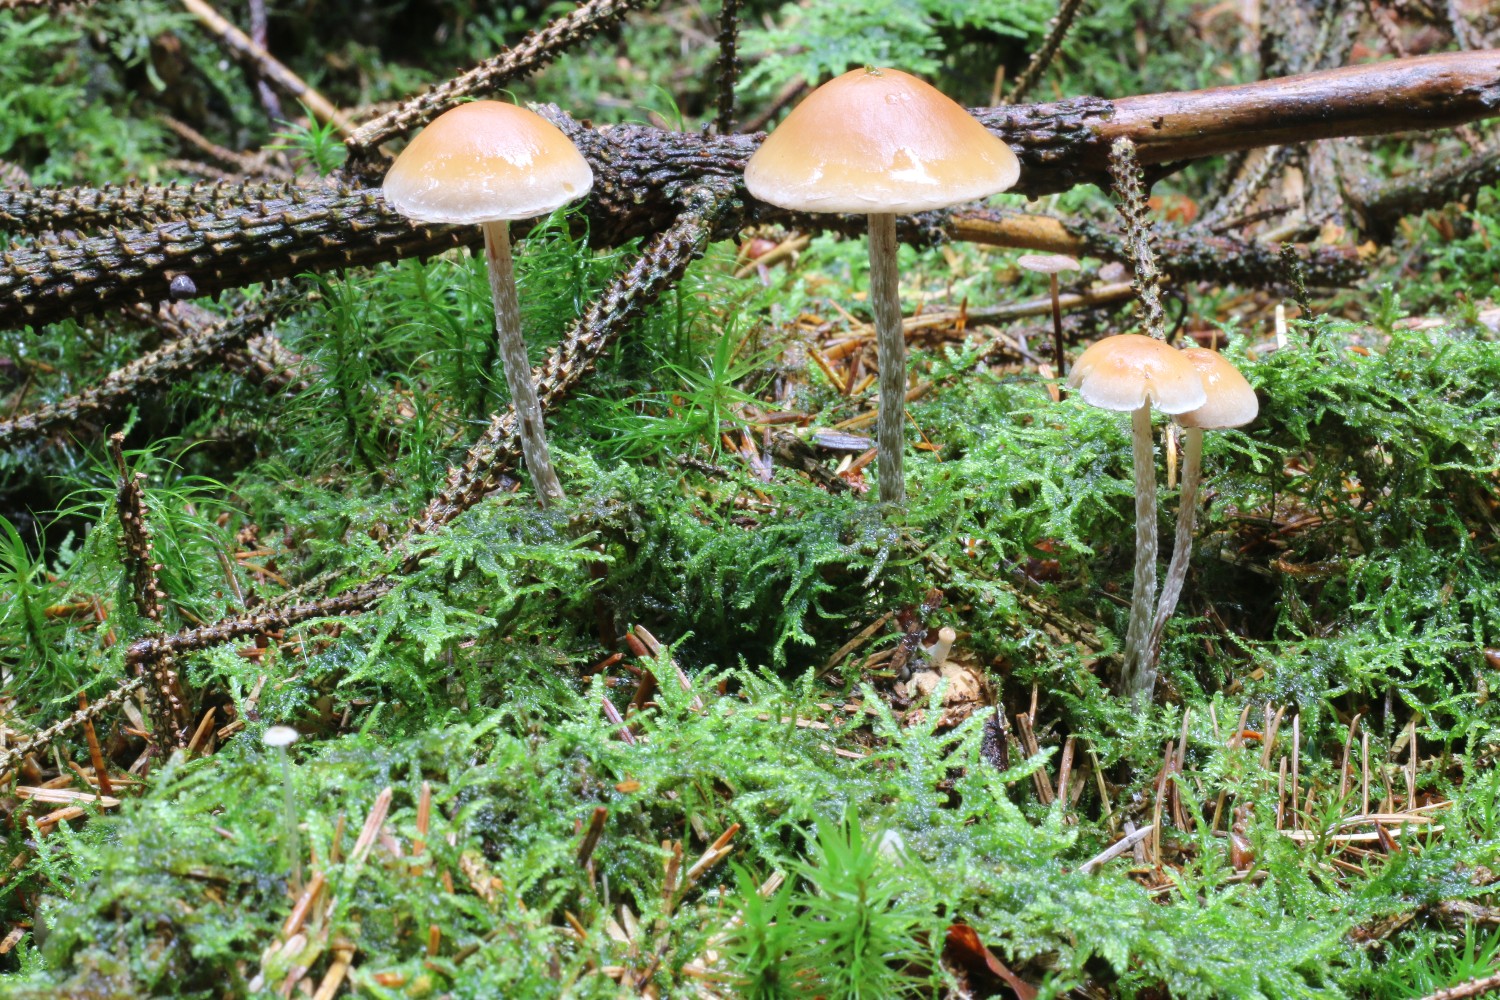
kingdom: Fungi
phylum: Basidiomycota
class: Agaricomycetes
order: Agaricales
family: Strophariaceae
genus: Hypholoma
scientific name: Hypholoma marginatum
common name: enlig svovlhat
